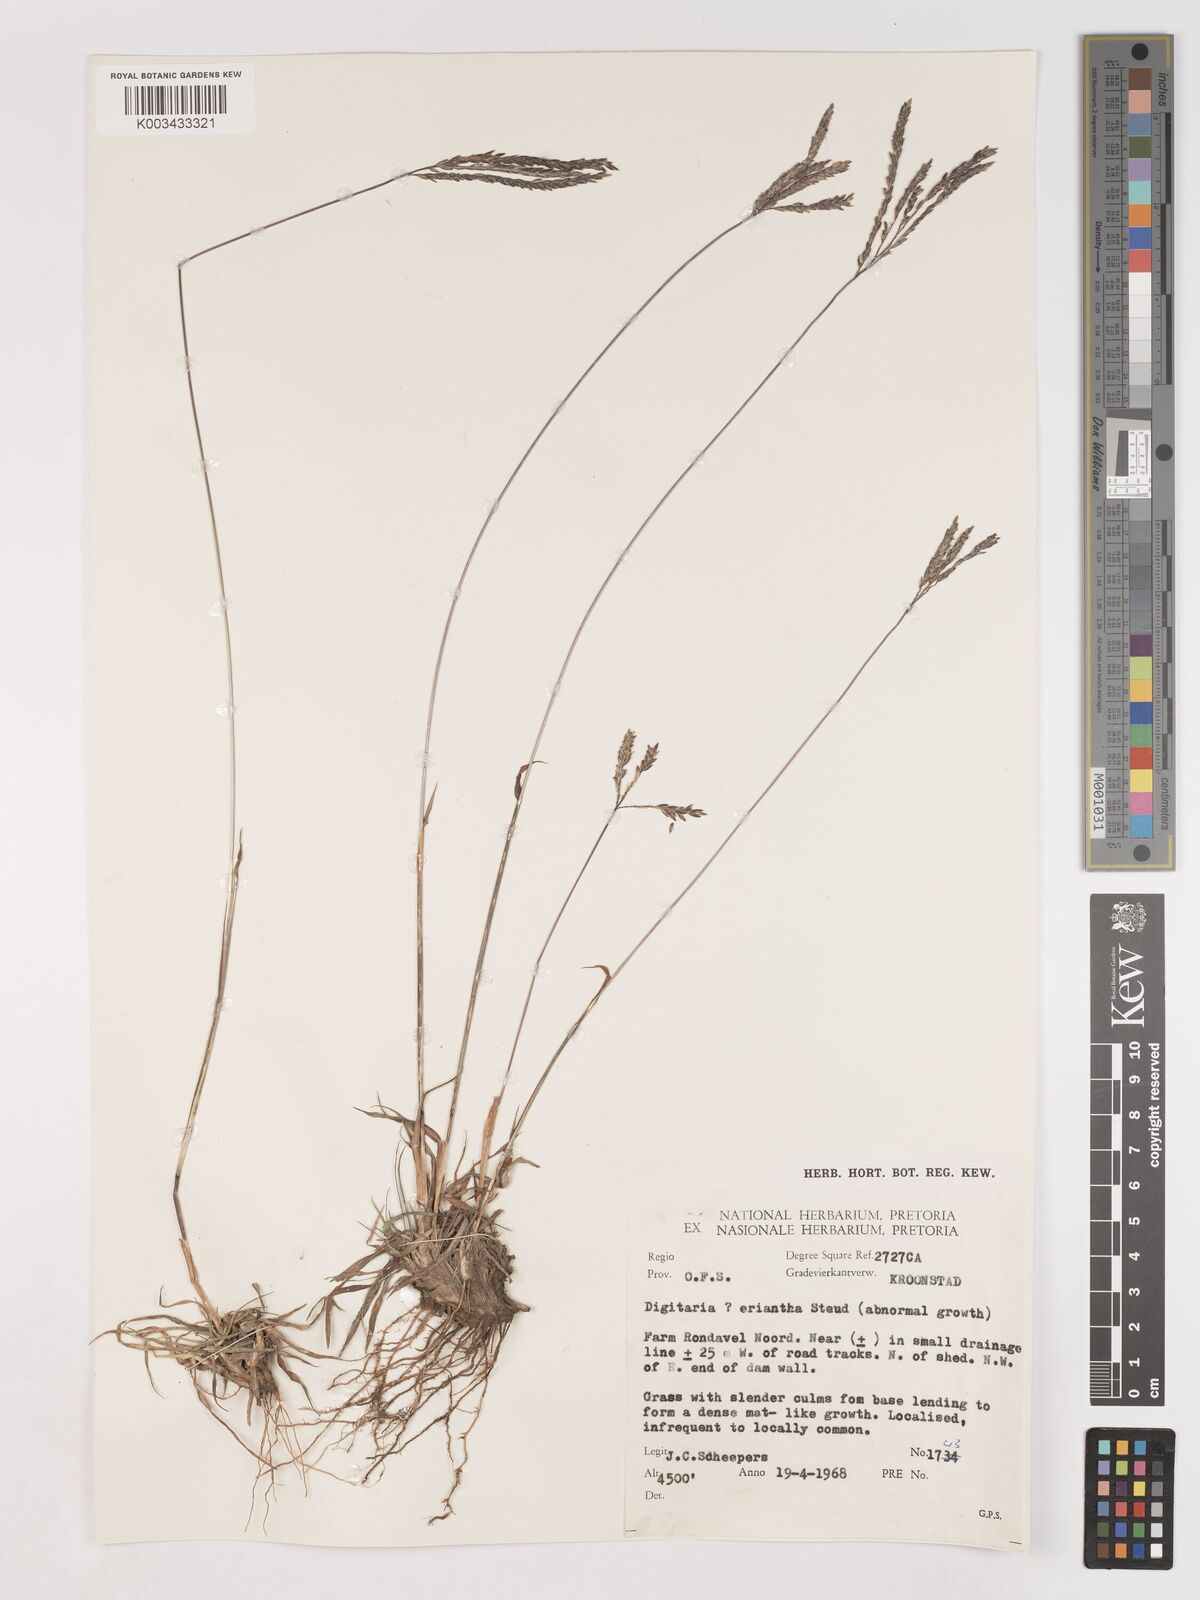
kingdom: Plantae
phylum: Tracheophyta
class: Liliopsida
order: Poales
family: Poaceae
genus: Digitaria
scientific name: Digitaria eriantha
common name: Digitgrass
